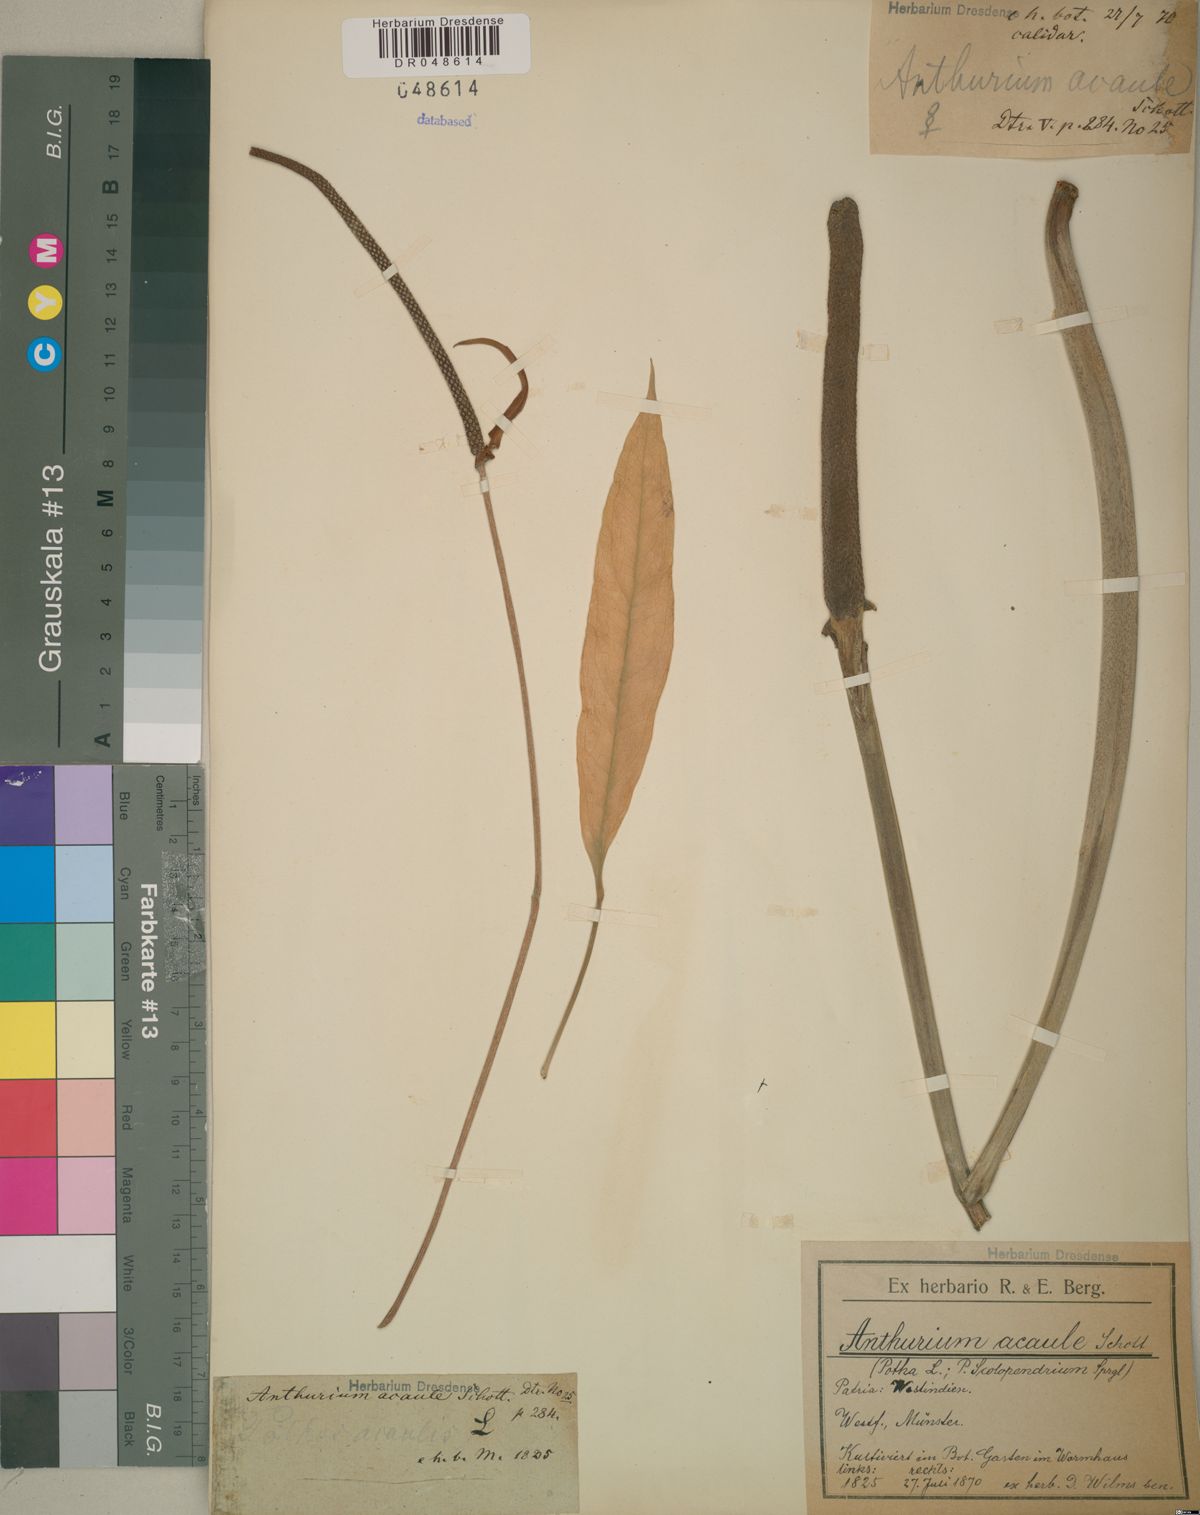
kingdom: Plantae
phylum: Tracheophyta
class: Liliopsida
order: Alismatales
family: Araceae
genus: Anthurium
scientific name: Anthurium acaule
